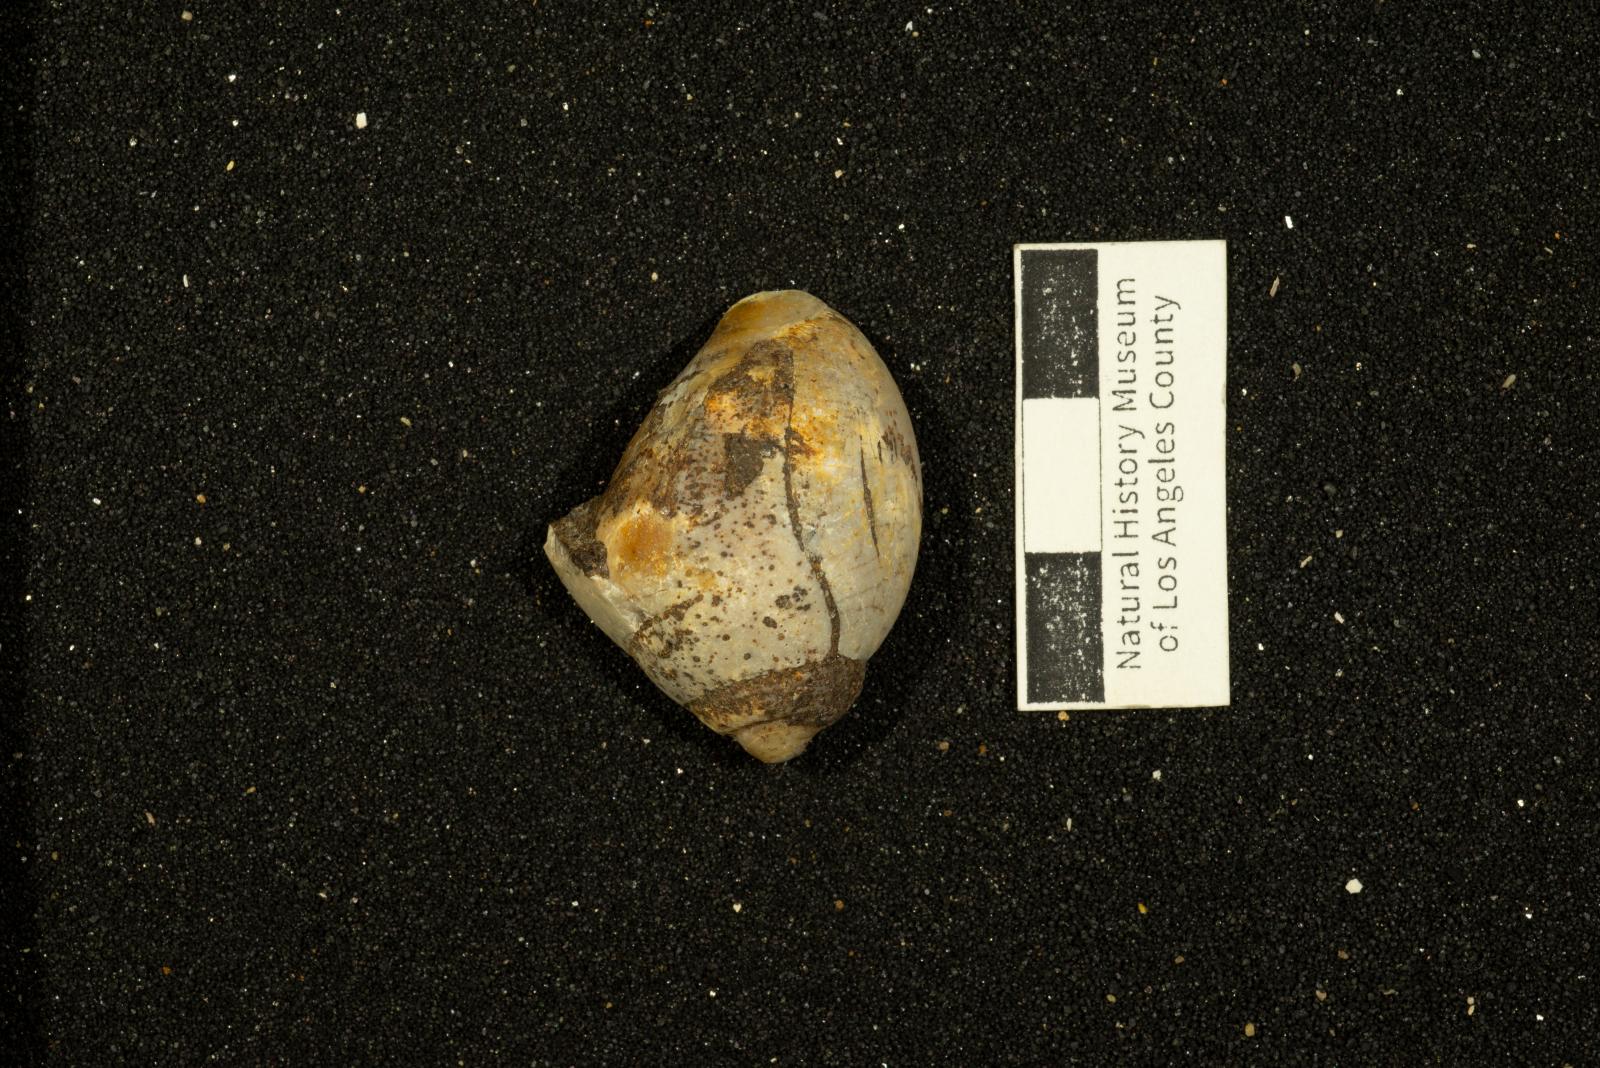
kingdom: Animalia
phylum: Mollusca
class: Gastropoda
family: Pseudomelaniidae
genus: Paosia
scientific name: Paosia Acteonina ursula
